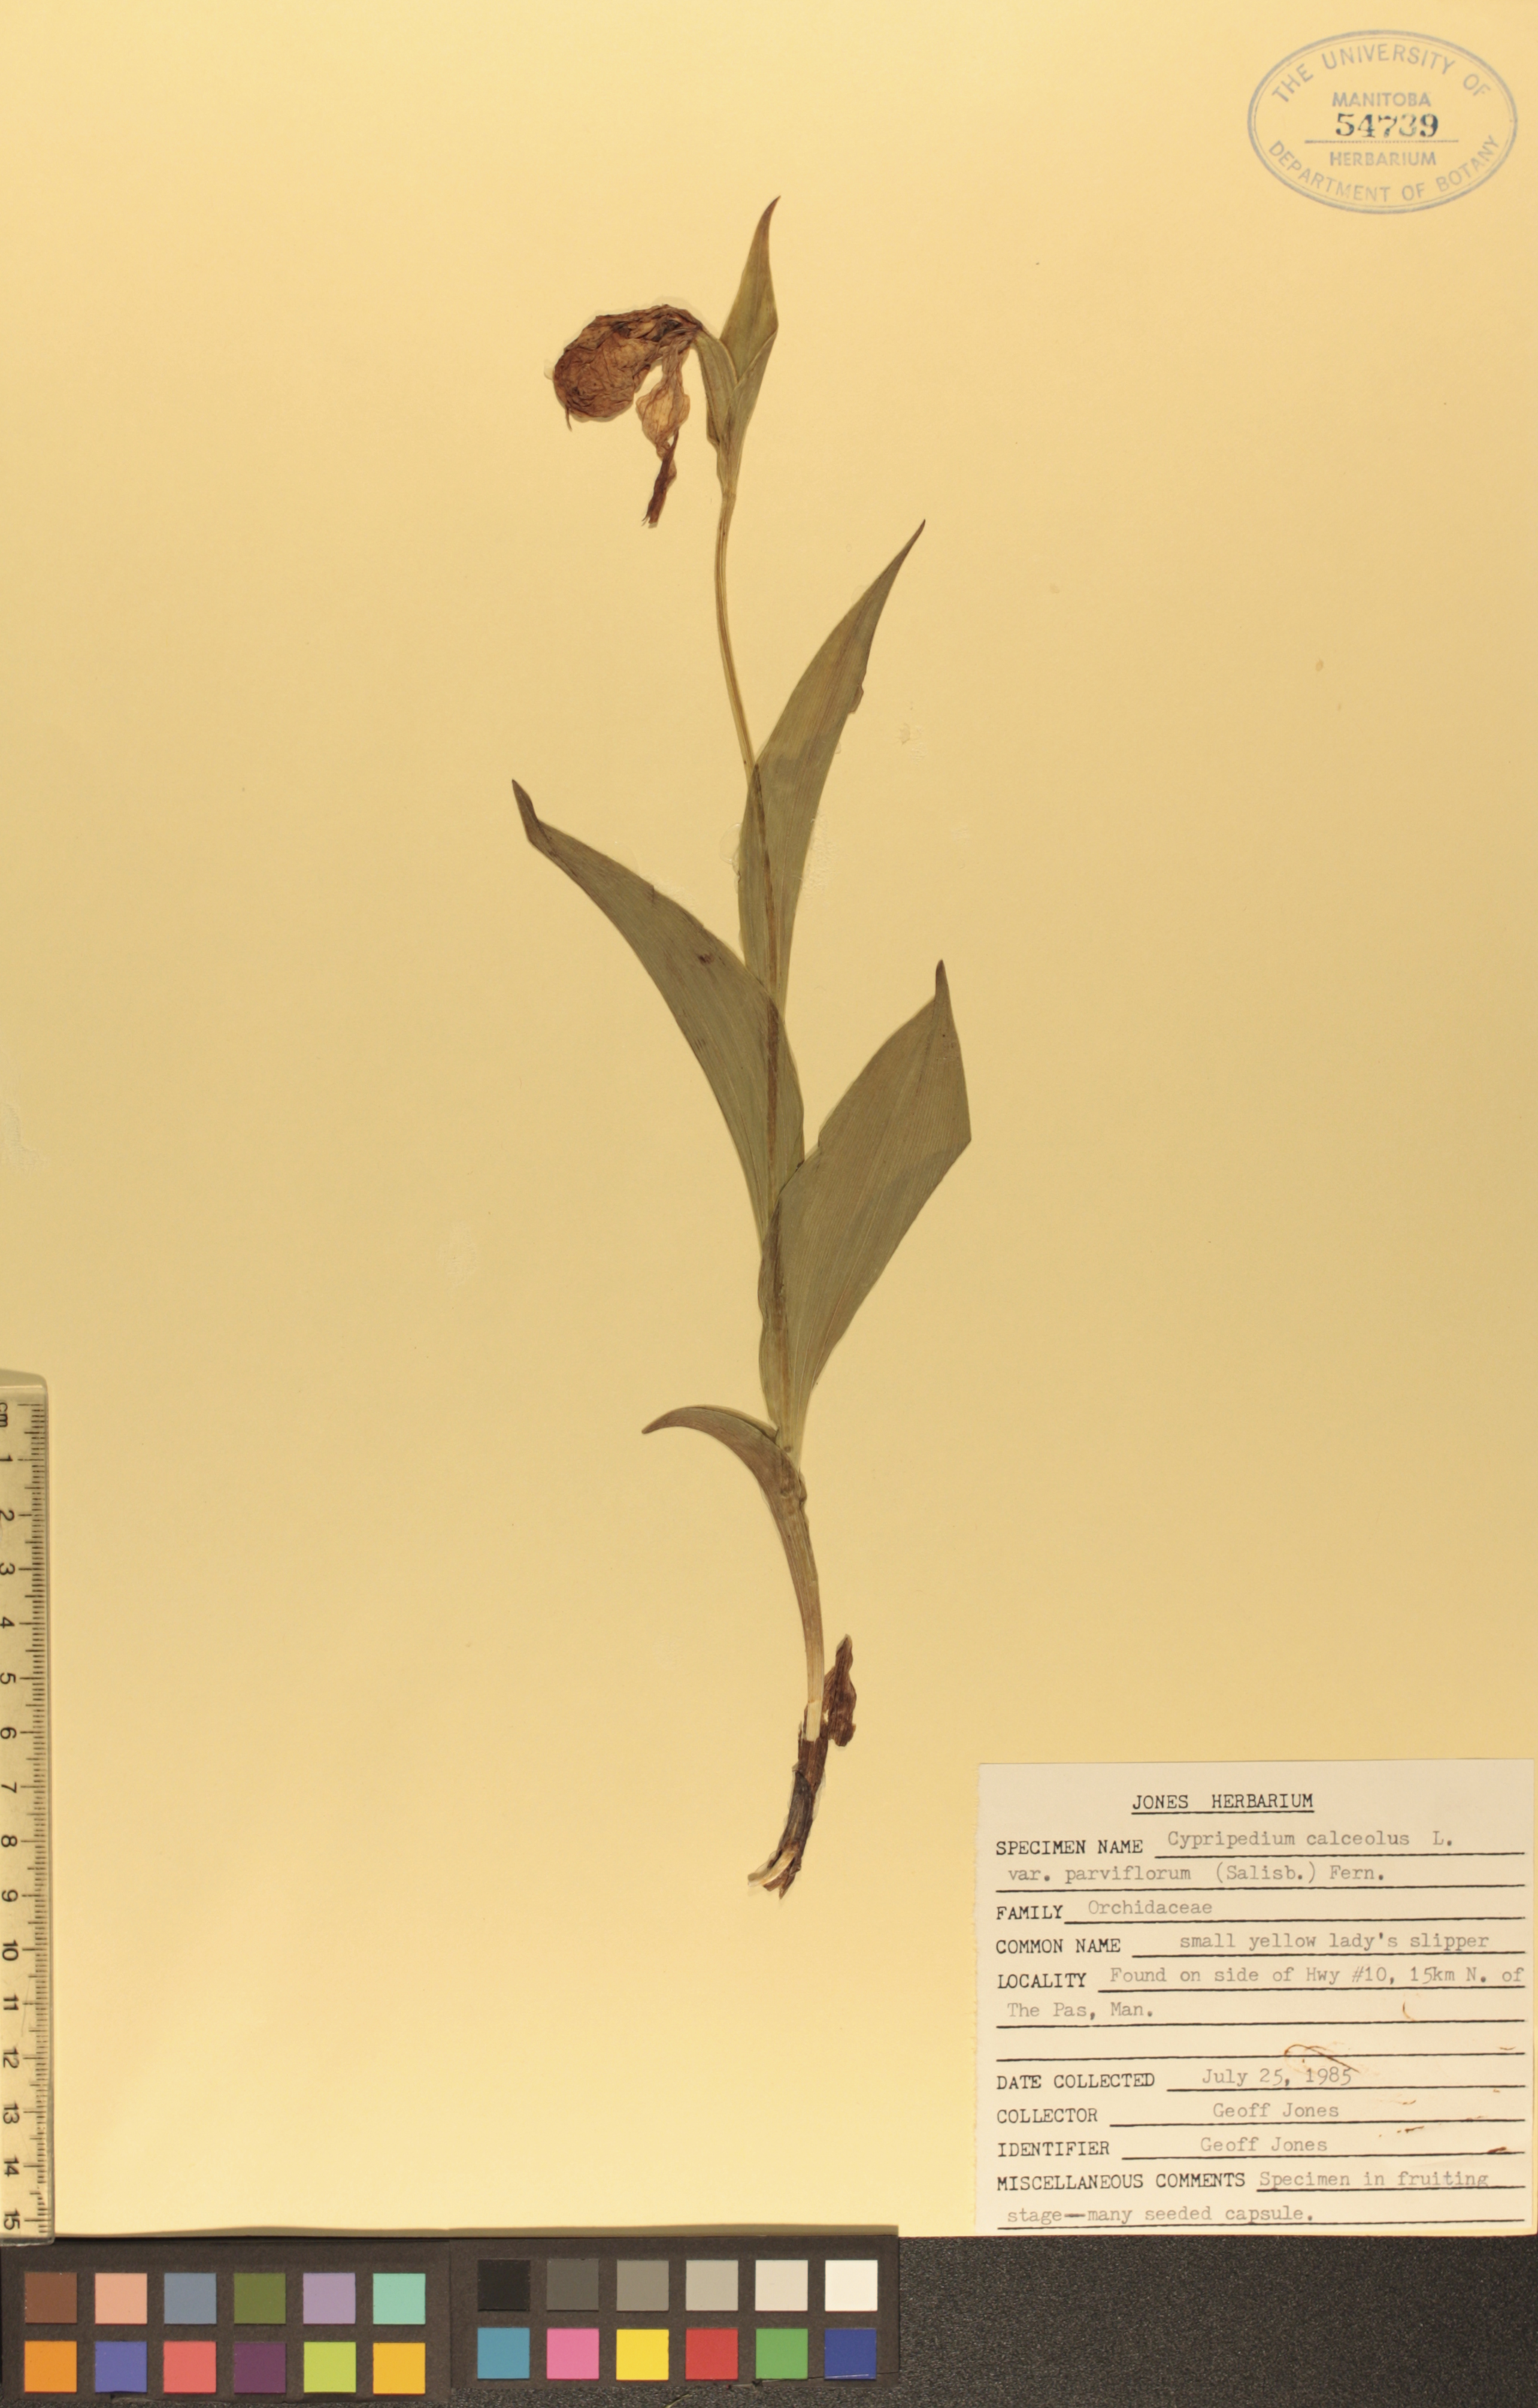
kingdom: Plantae
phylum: Tracheophyta
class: Liliopsida
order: Asparagales
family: Orchidaceae
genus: Cypripedium
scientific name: Cypripedium parviflorum
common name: American yellow lady's-slipper
